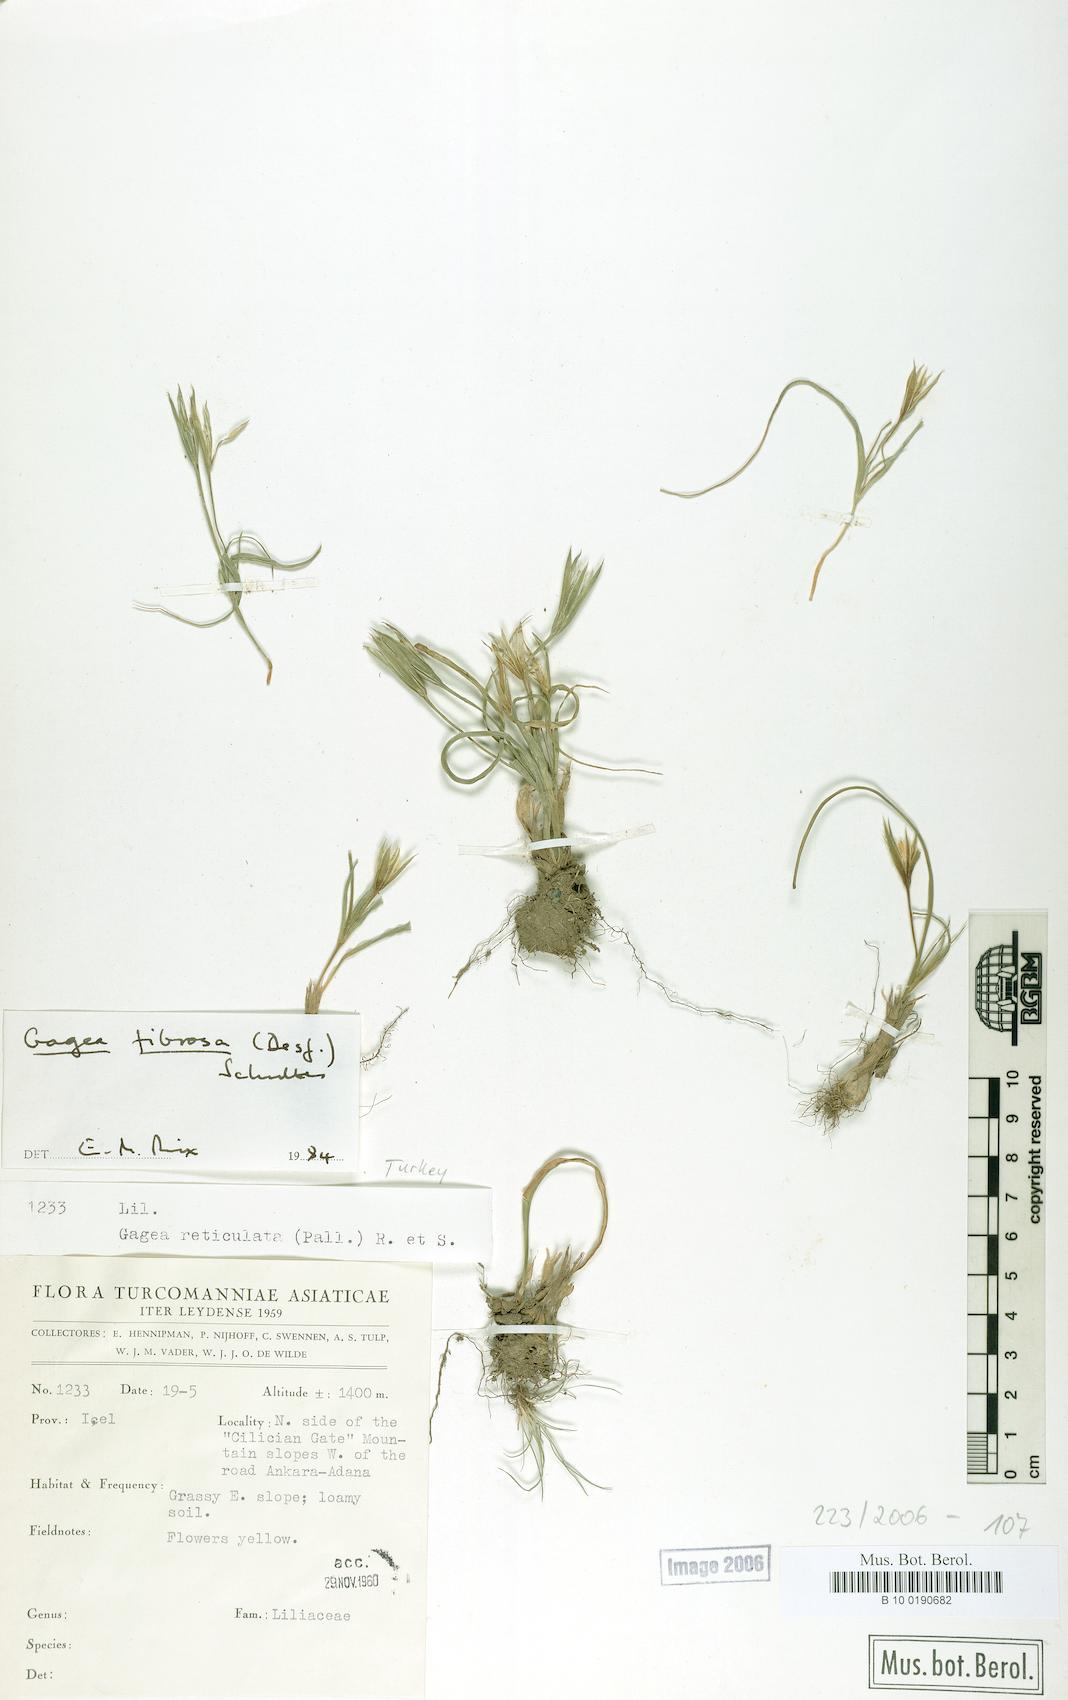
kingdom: Plantae
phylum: Tracheophyta
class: Liliopsida
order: Liliales
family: Liliaceae
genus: Gagea
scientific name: Gagea fibrosa
